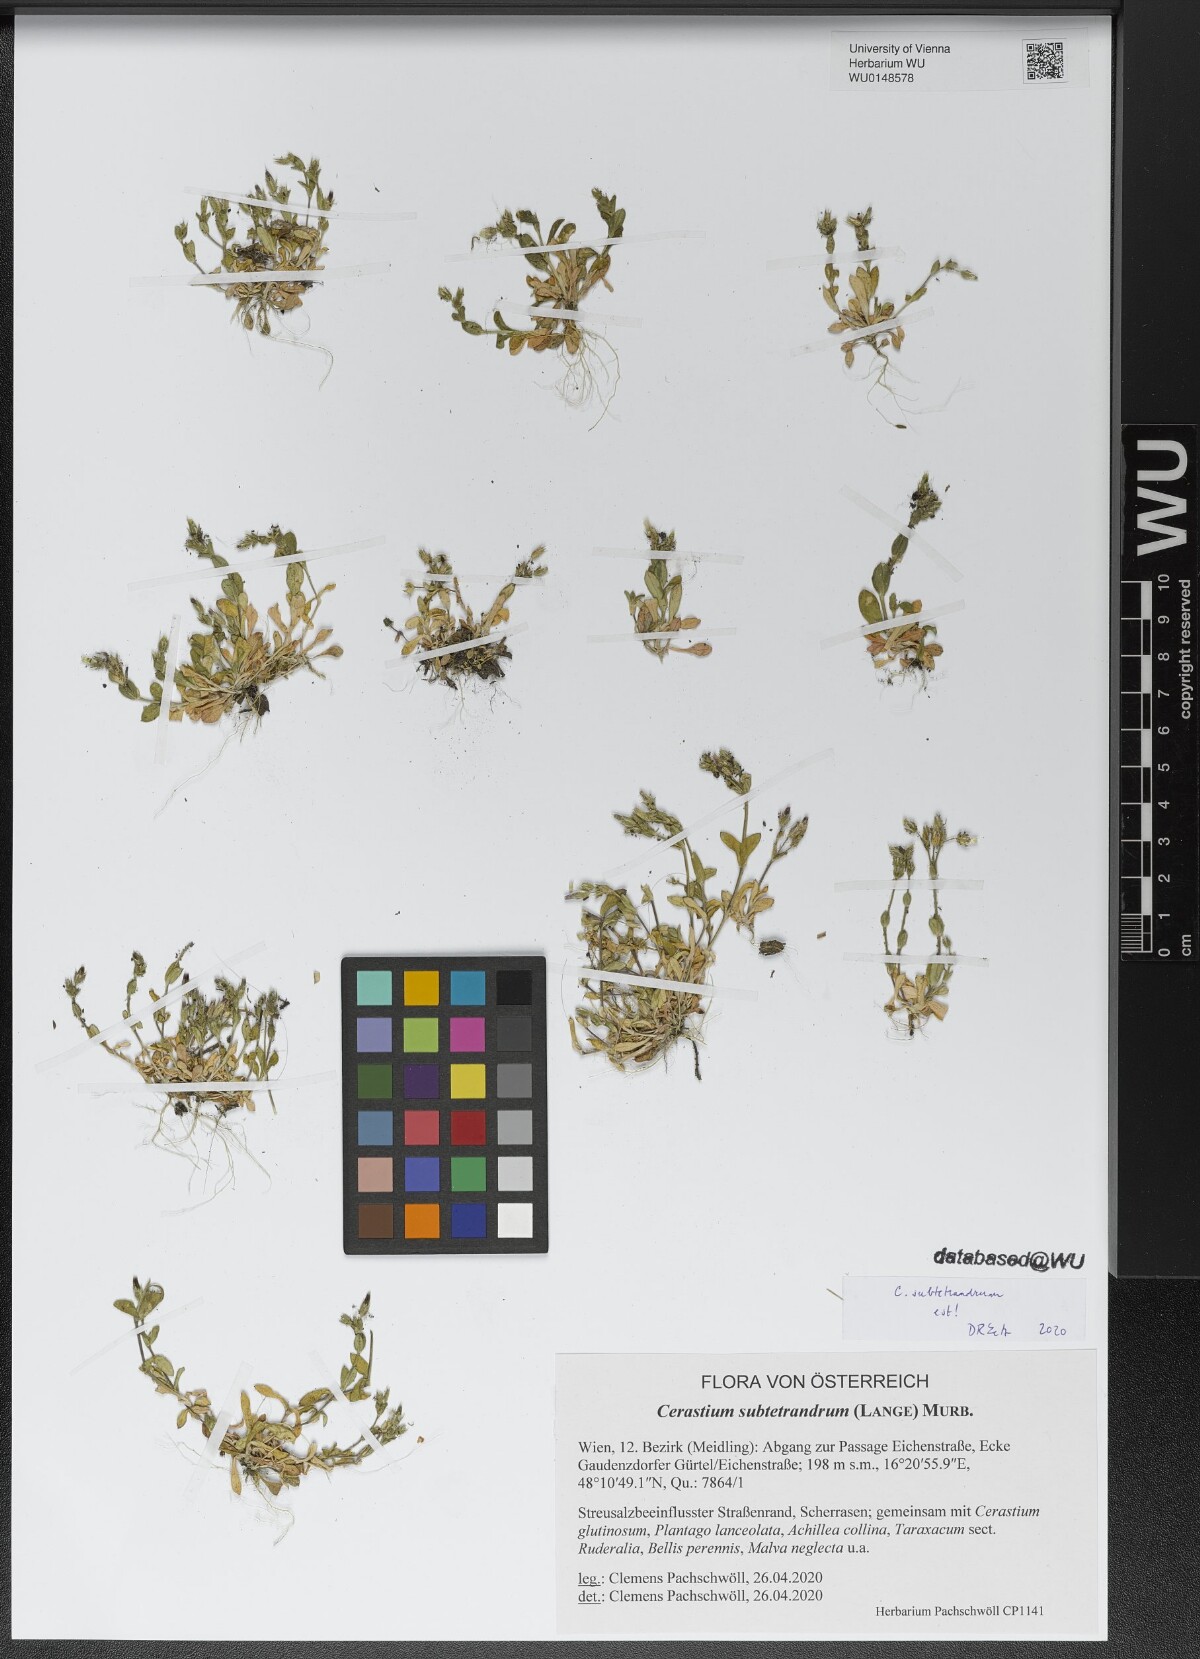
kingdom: Plantae
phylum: Tracheophyta
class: Magnoliopsida
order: Caryophyllales
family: Caryophyllaceae
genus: Cerastium
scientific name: Cerastium subtetrandrum
